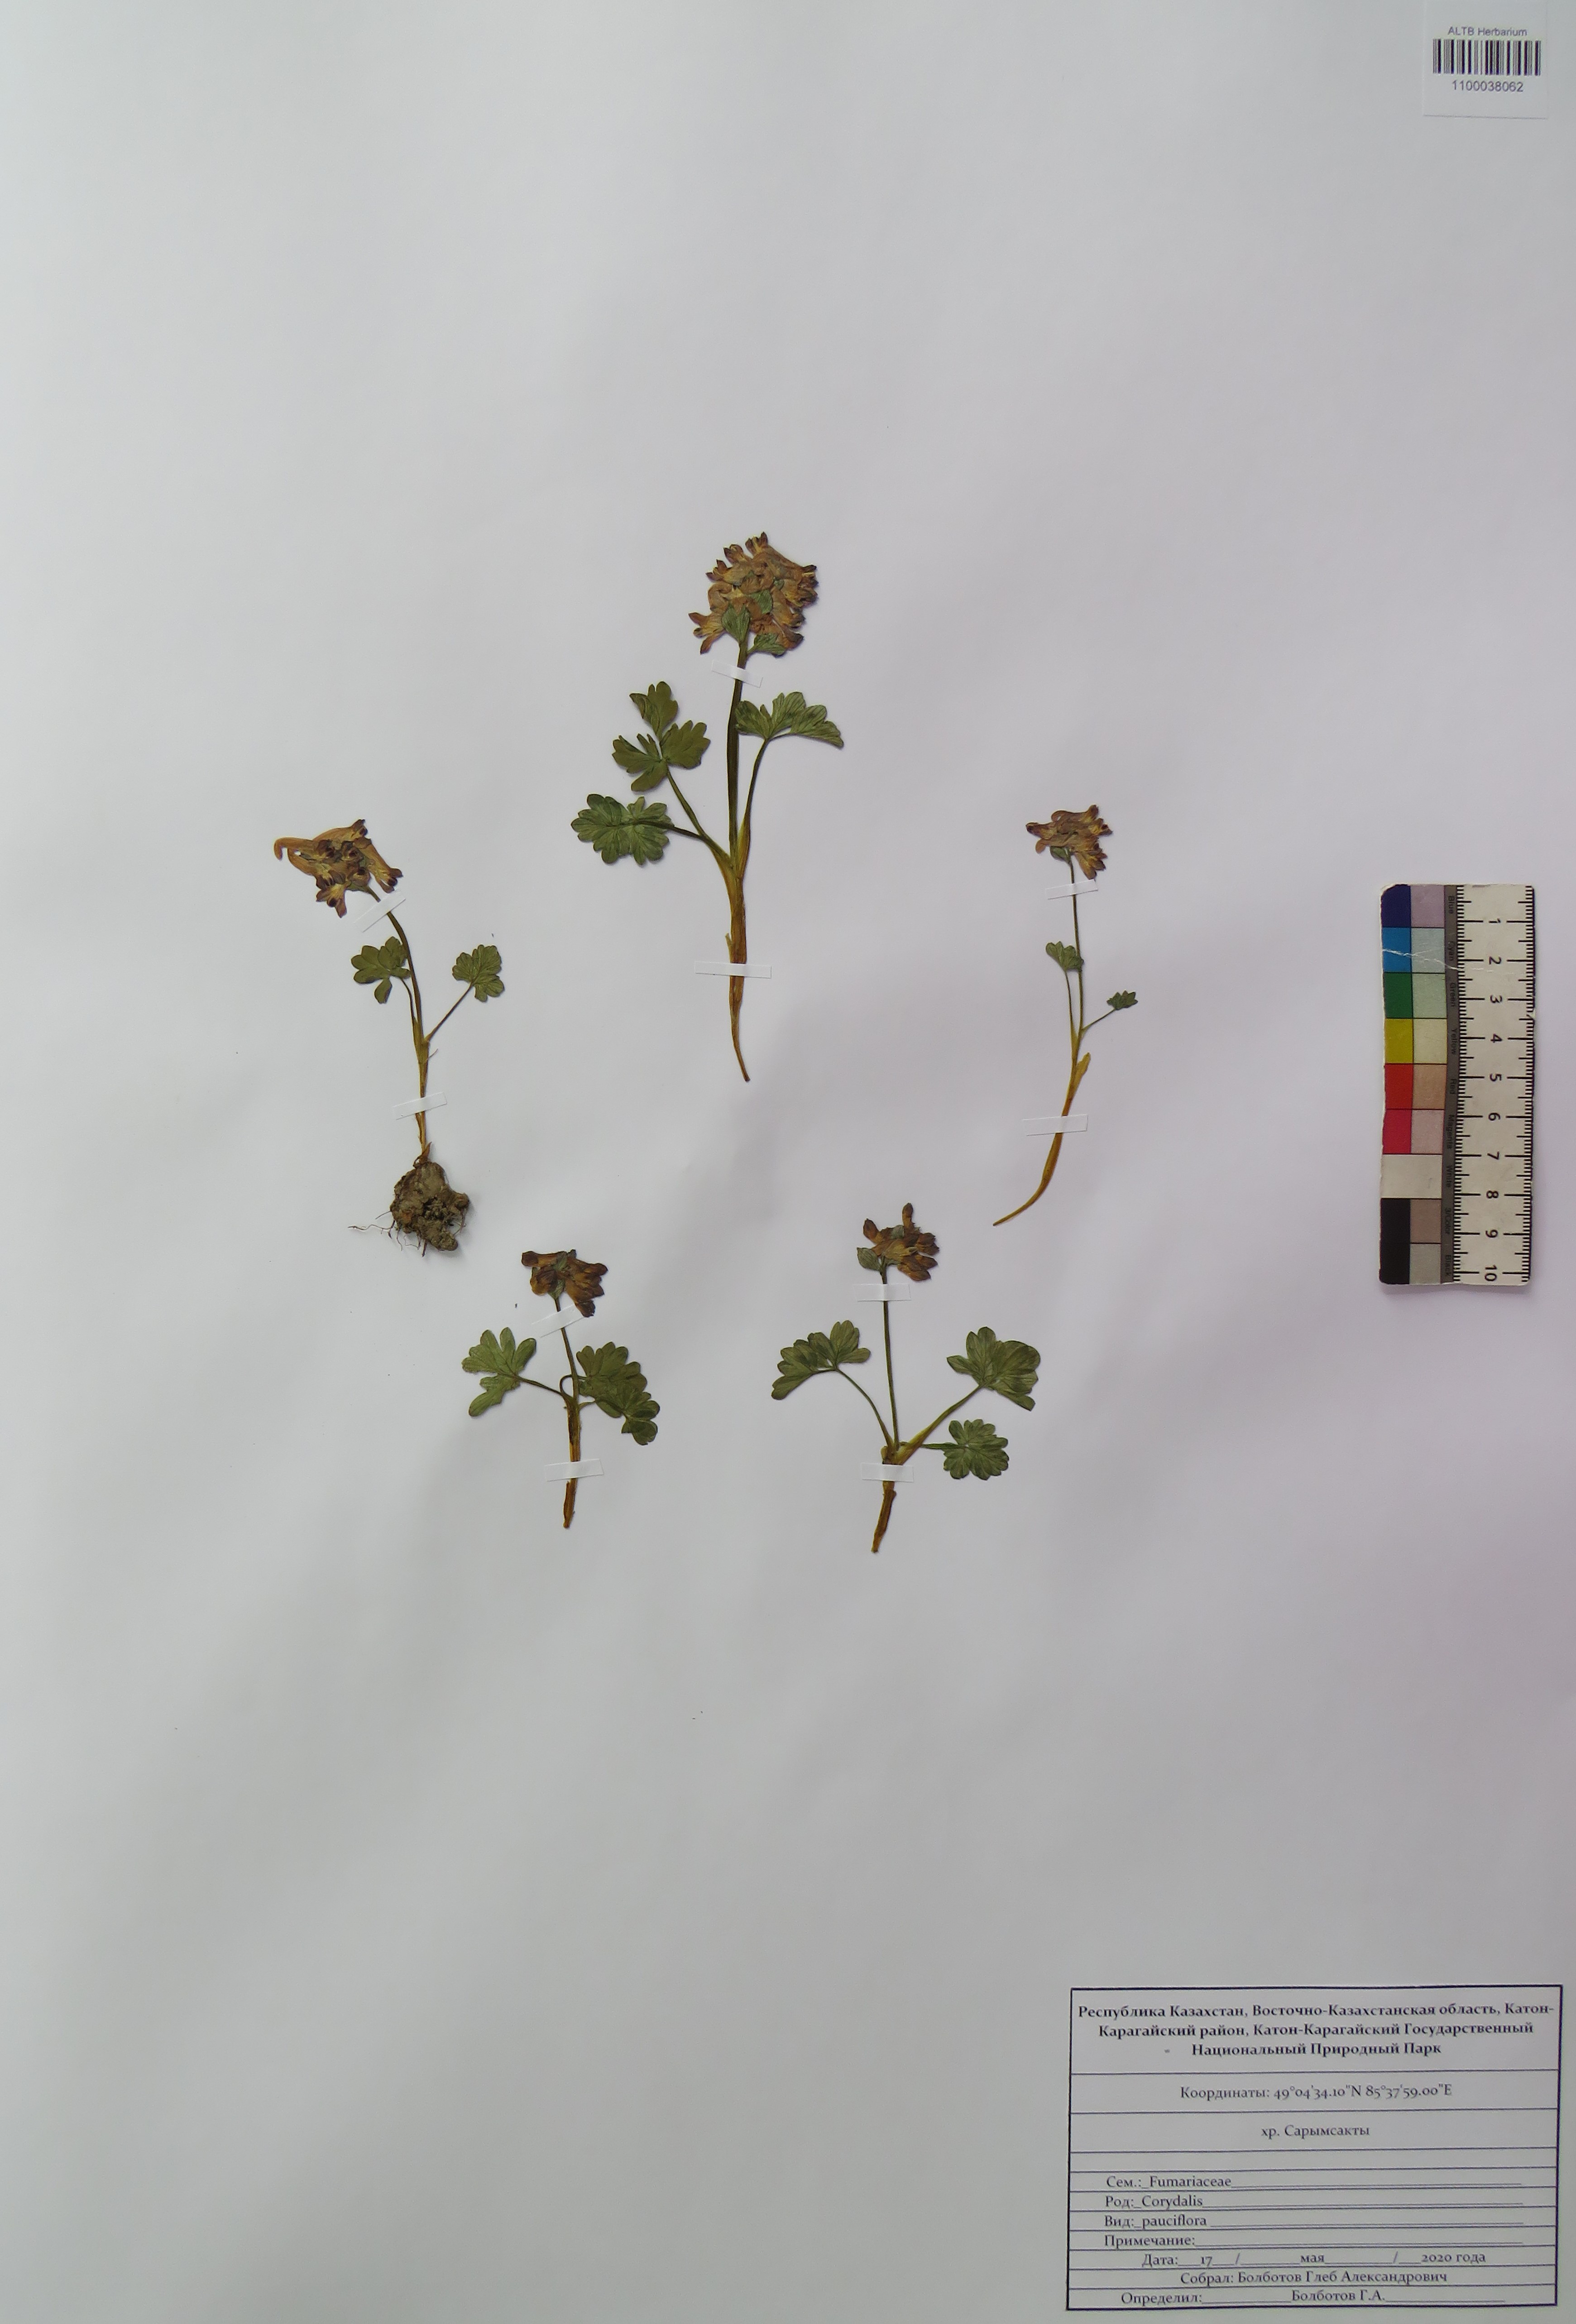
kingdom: Plantae
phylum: Tracheophyta
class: Magnoliopsida
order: Ranunculales
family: Papaveraceae
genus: Corydalis
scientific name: Corydalis pauciflora
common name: Blue corydalis
